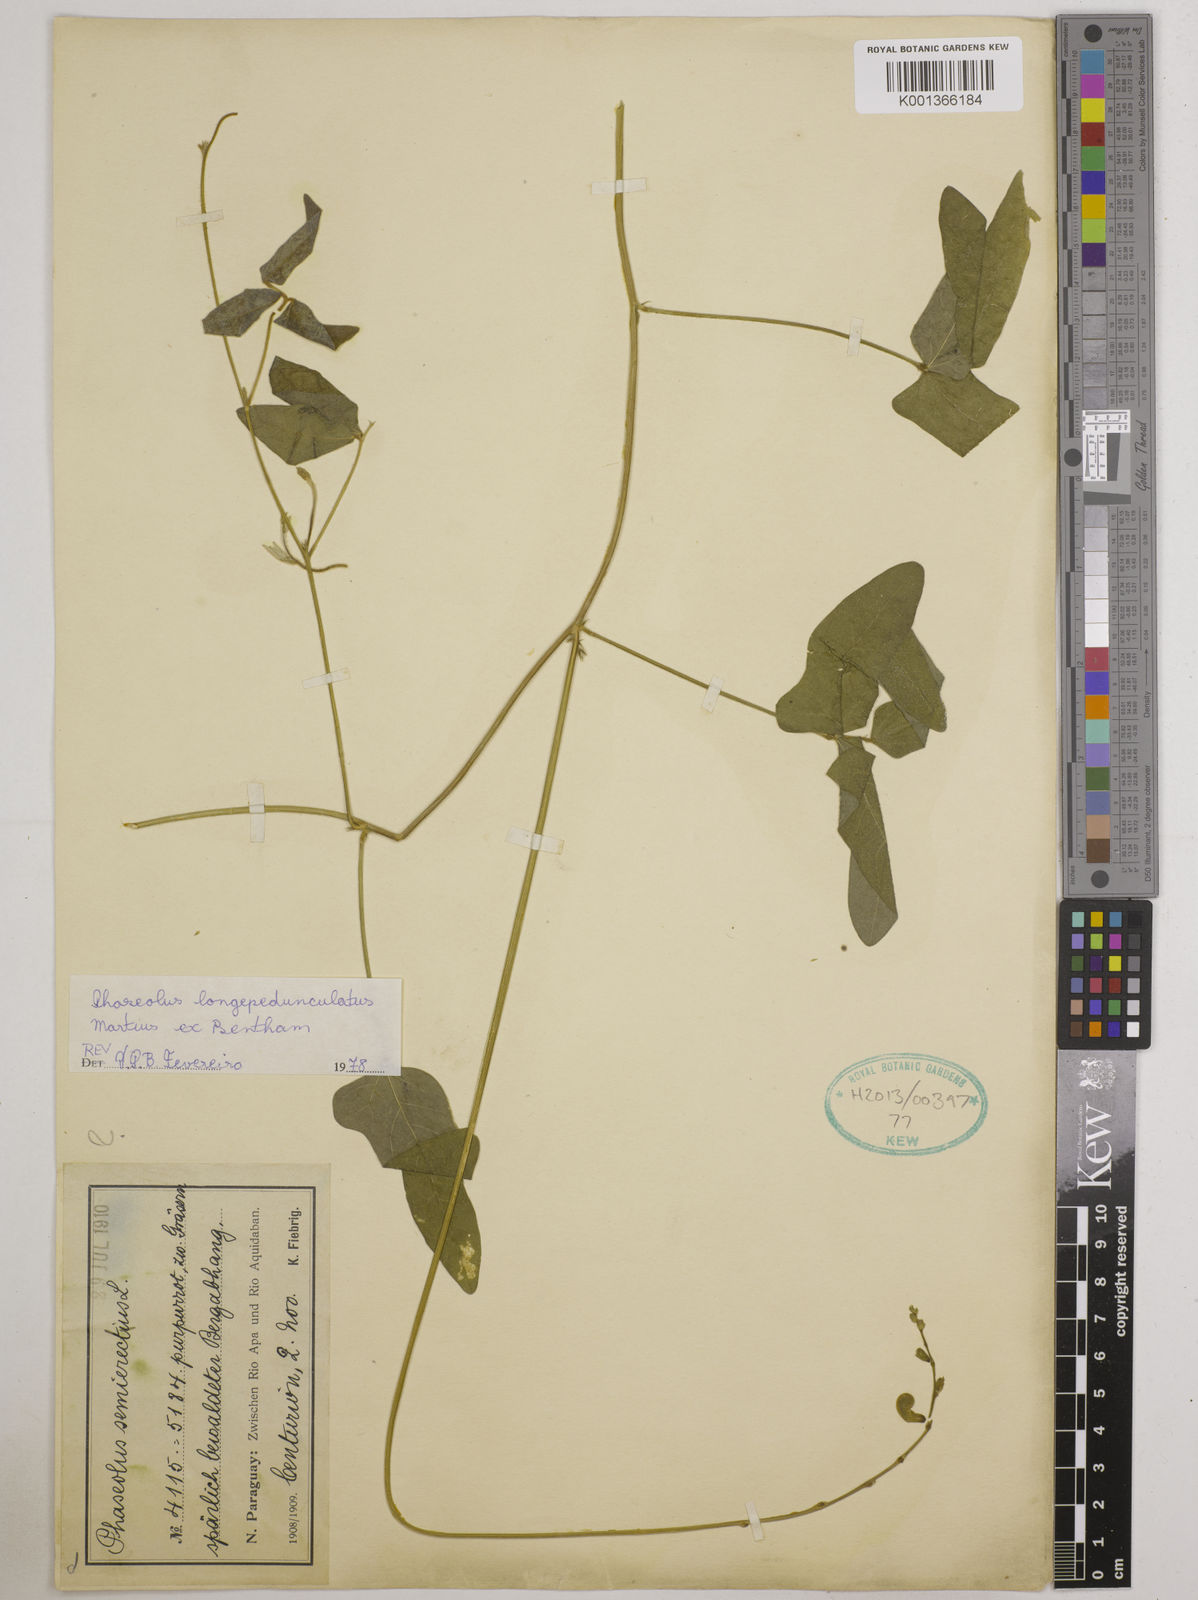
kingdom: Plantae
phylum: Tracheophyta
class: Magnoliopsida
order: Fabales
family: Fabaceae
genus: Macroptilium
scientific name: Macroptilium longepedunculatum
